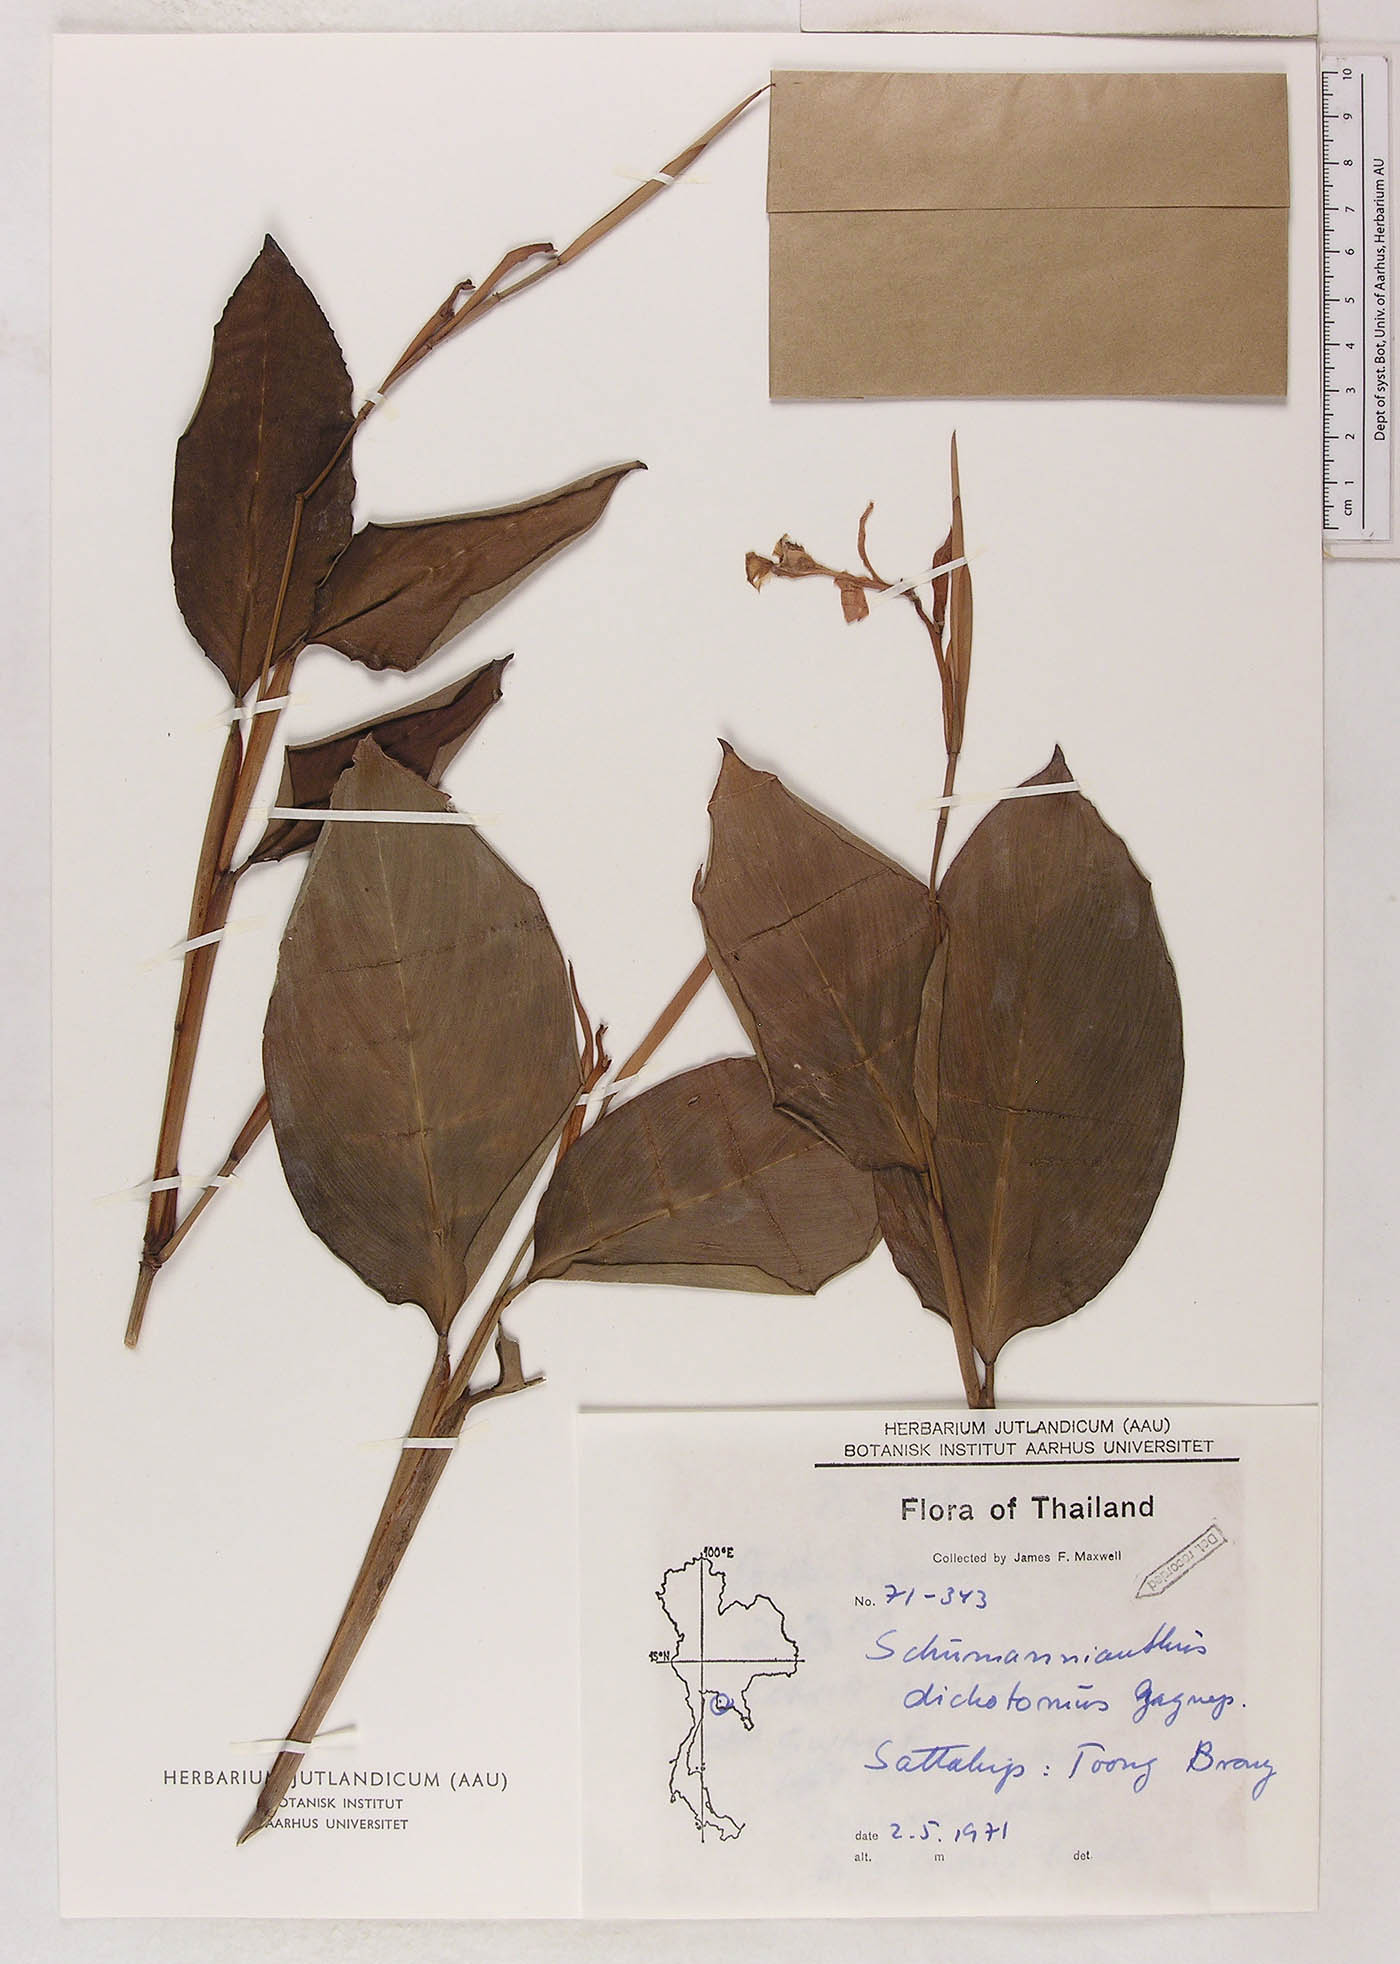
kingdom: Plantae
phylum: Tracheophyta
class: Liliopsida
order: Zingiberales
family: Marantaceae
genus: Schumannianthus
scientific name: Schumannianthus benthamianus
